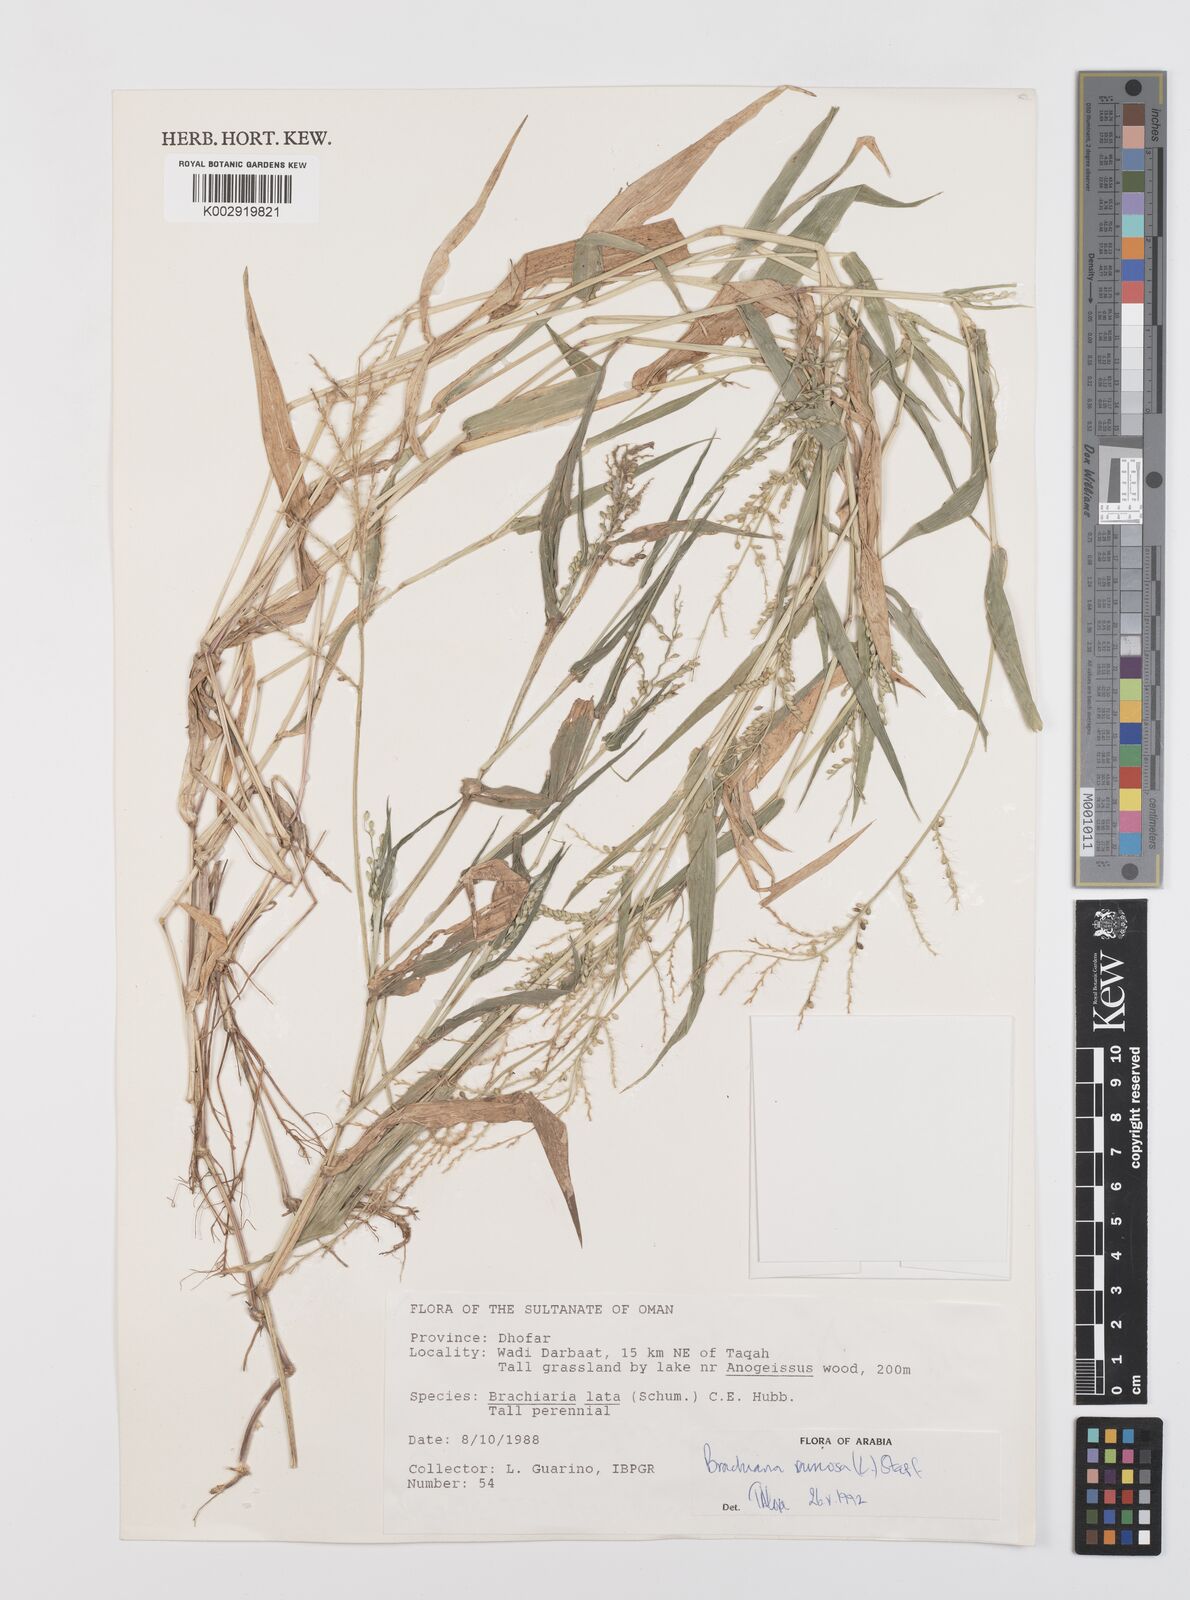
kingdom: Plantae
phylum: Tracheophyta
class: Liliopsida
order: Poales
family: Poaceae
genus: Urochloa
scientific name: Urochloa ramosa
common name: Browntop millet
